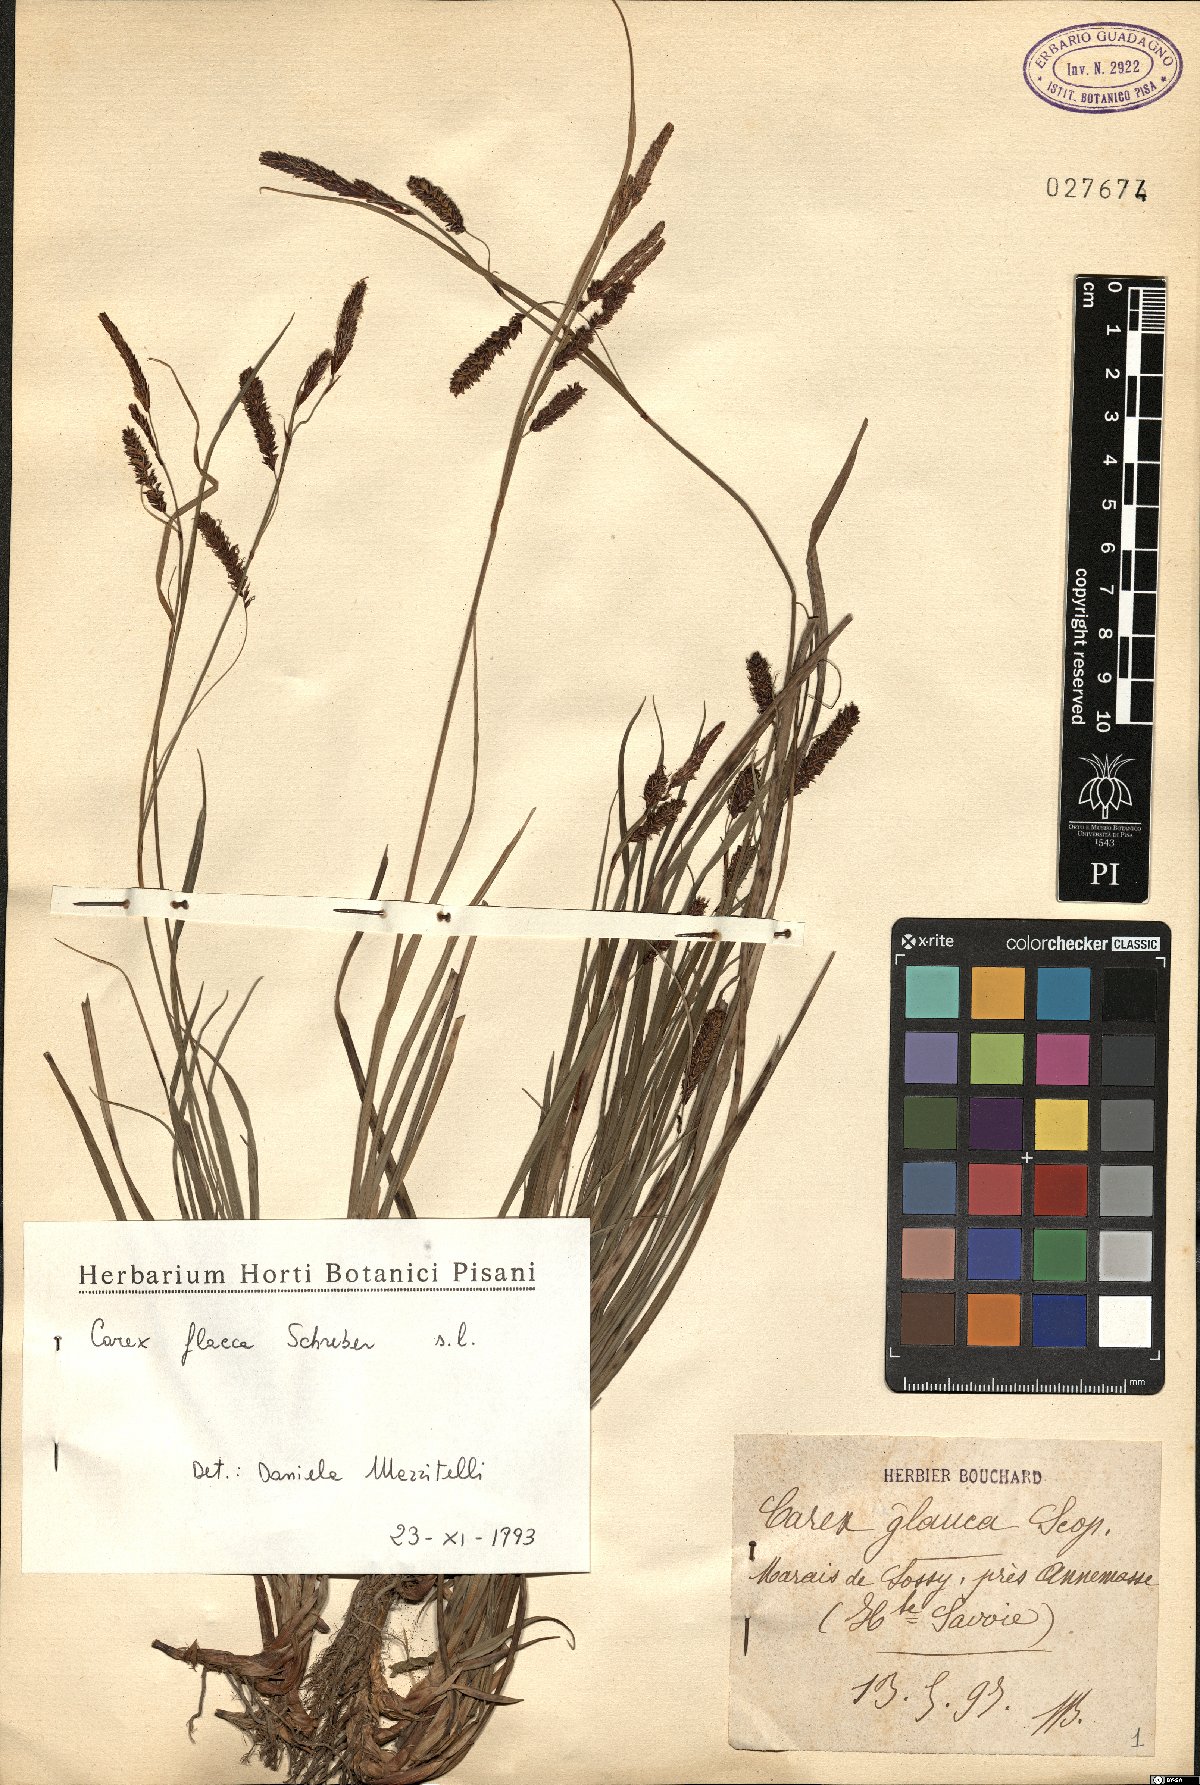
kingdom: Plantae
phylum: Tracheophyta
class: Liliopsida
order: Poales
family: Cyperaceae
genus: Carex
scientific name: Carex flacca
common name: Glaucous sedge
